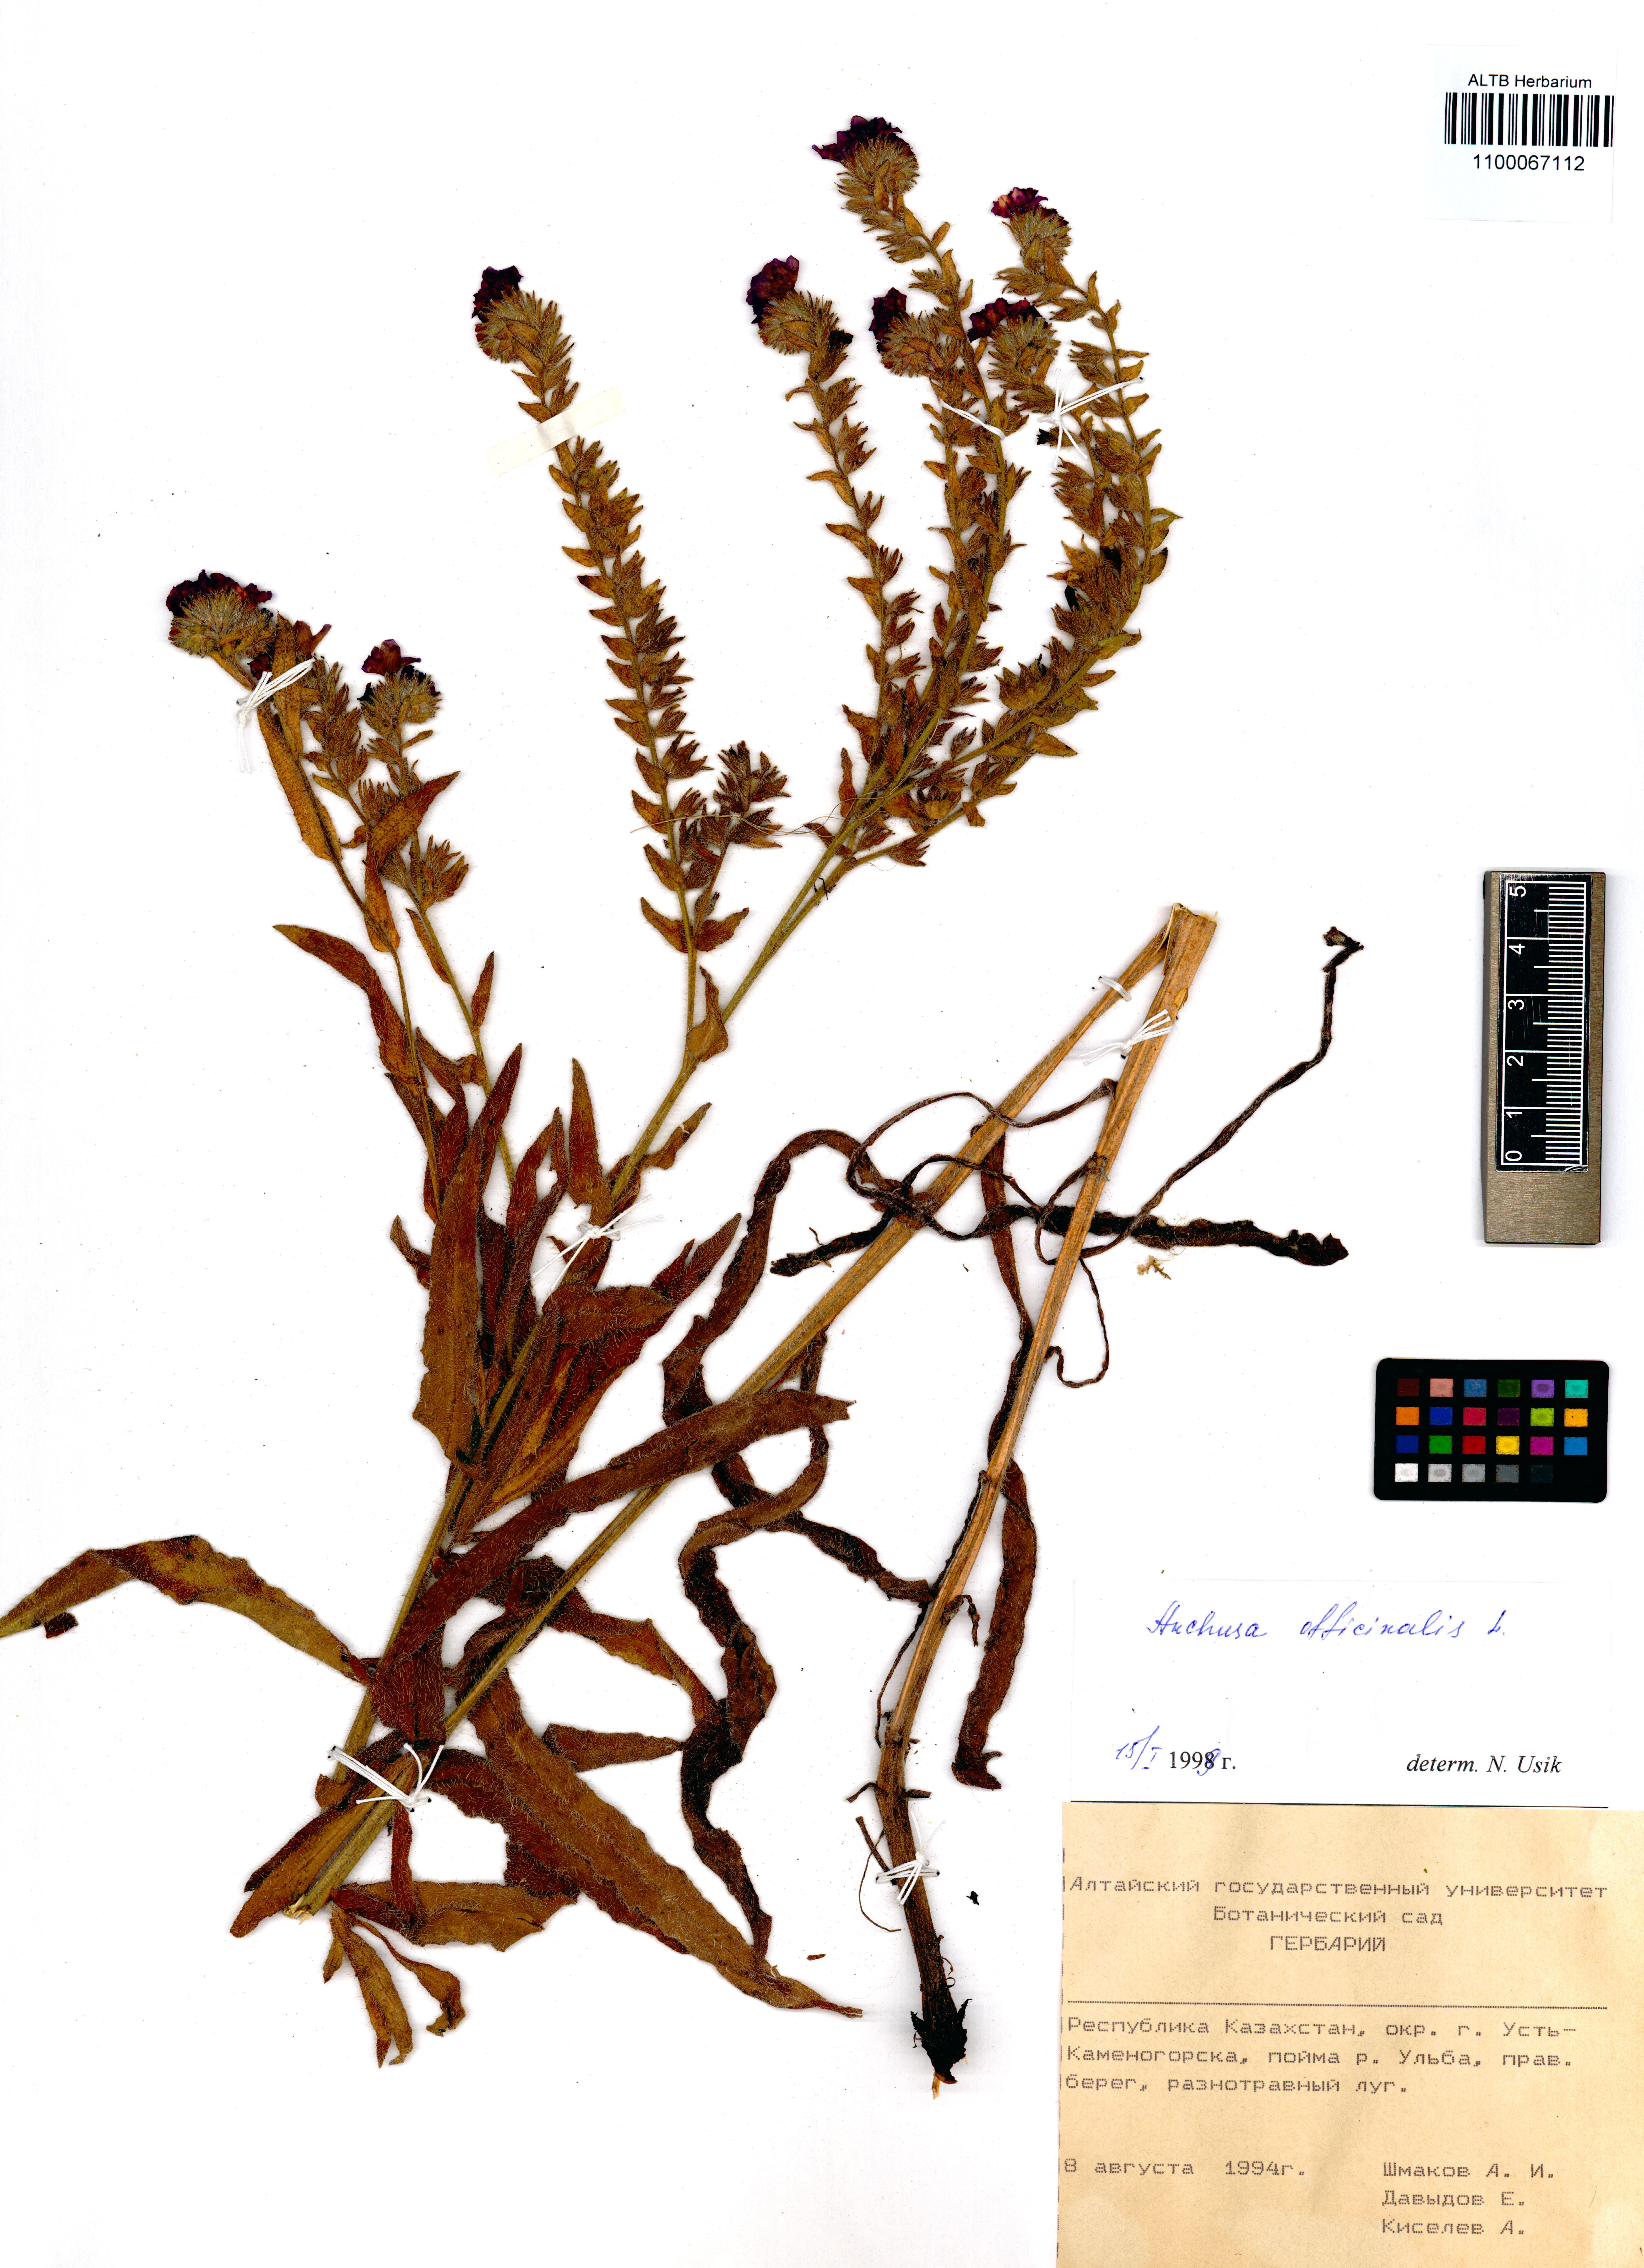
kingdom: Plantae
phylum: Tracheophyta
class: Magnoliopsida
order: Boraginales
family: Boraginaceae
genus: Anchusa
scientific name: Anchusa officinalis
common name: Alkanet
